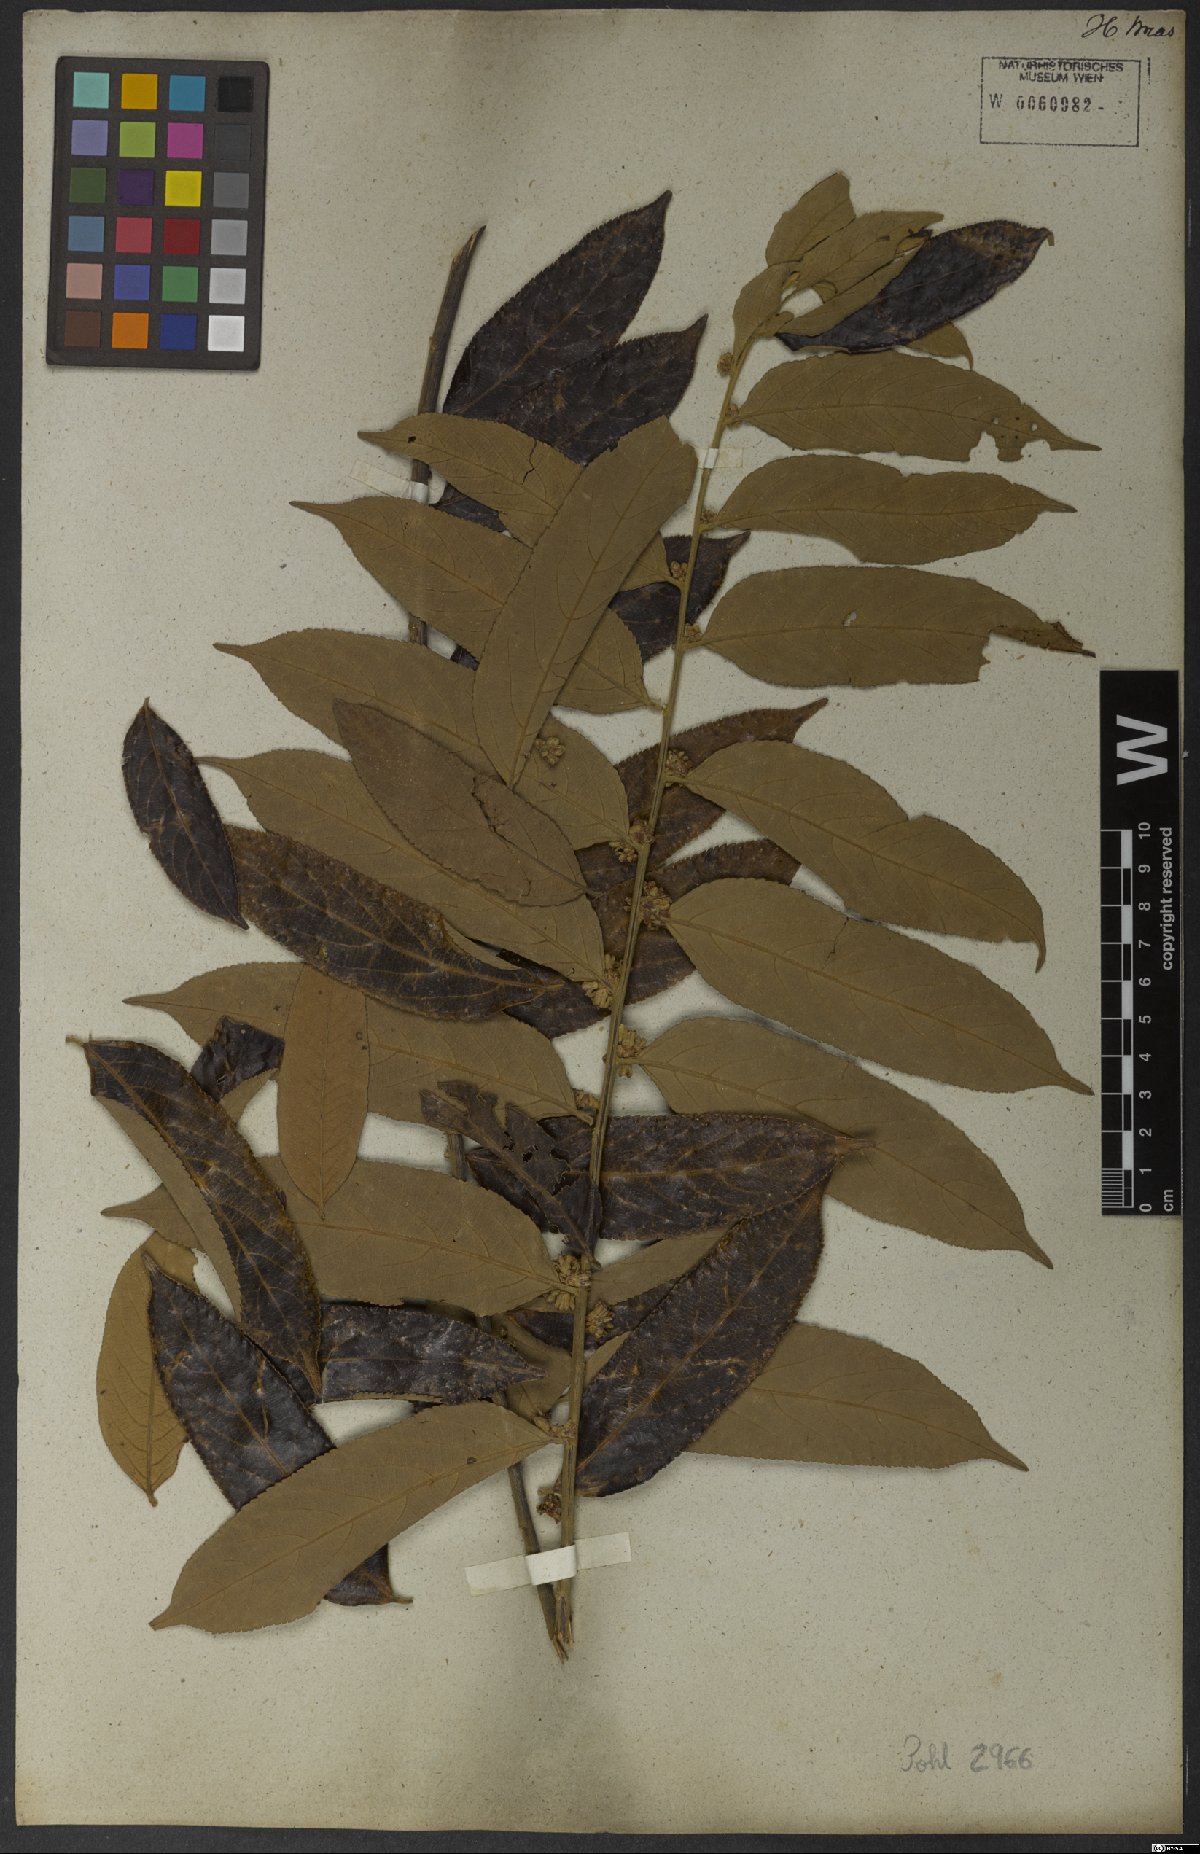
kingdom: Plantae
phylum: Tracheophyta
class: Magnoliopsida
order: Malpighiales
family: Salicaceae
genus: Casearia
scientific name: Casearia grandiflora
